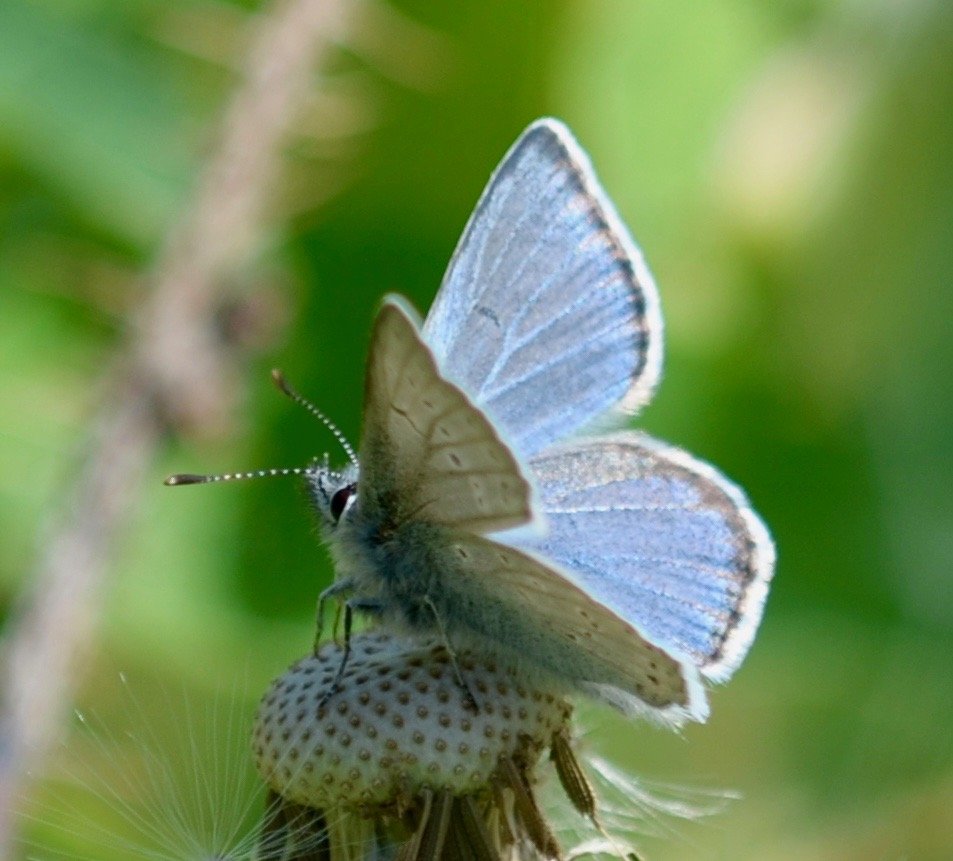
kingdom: Animalia
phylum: Arthropoda
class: Insecta
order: Lepidoptera
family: Lycaenidae
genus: Glaucopsyche
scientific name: Glaucopsyche lygdamus
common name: Silvery Blue
